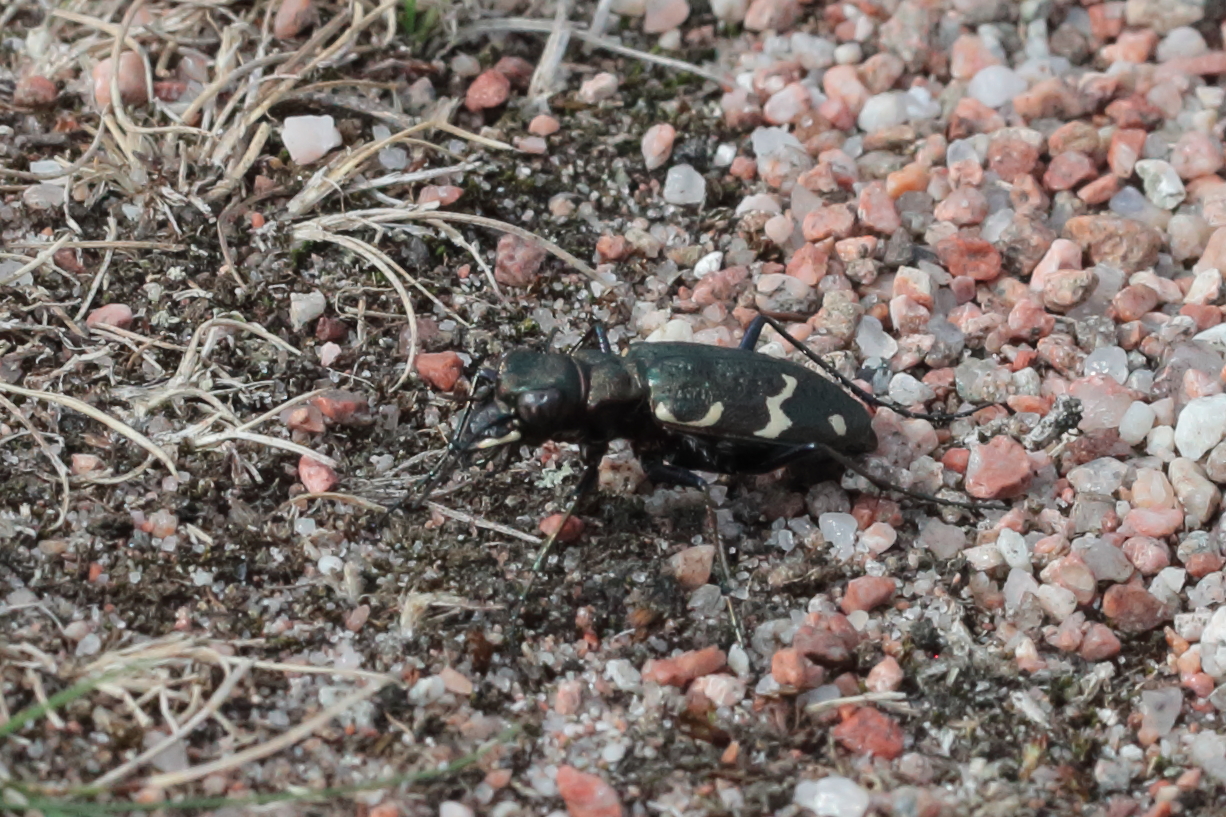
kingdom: Animalia
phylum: Arthropoda
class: Insecta
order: Coleoptera
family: Carabidae
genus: Cicindela
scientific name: Cicindela sylvatica
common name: Heath tiger beetle
